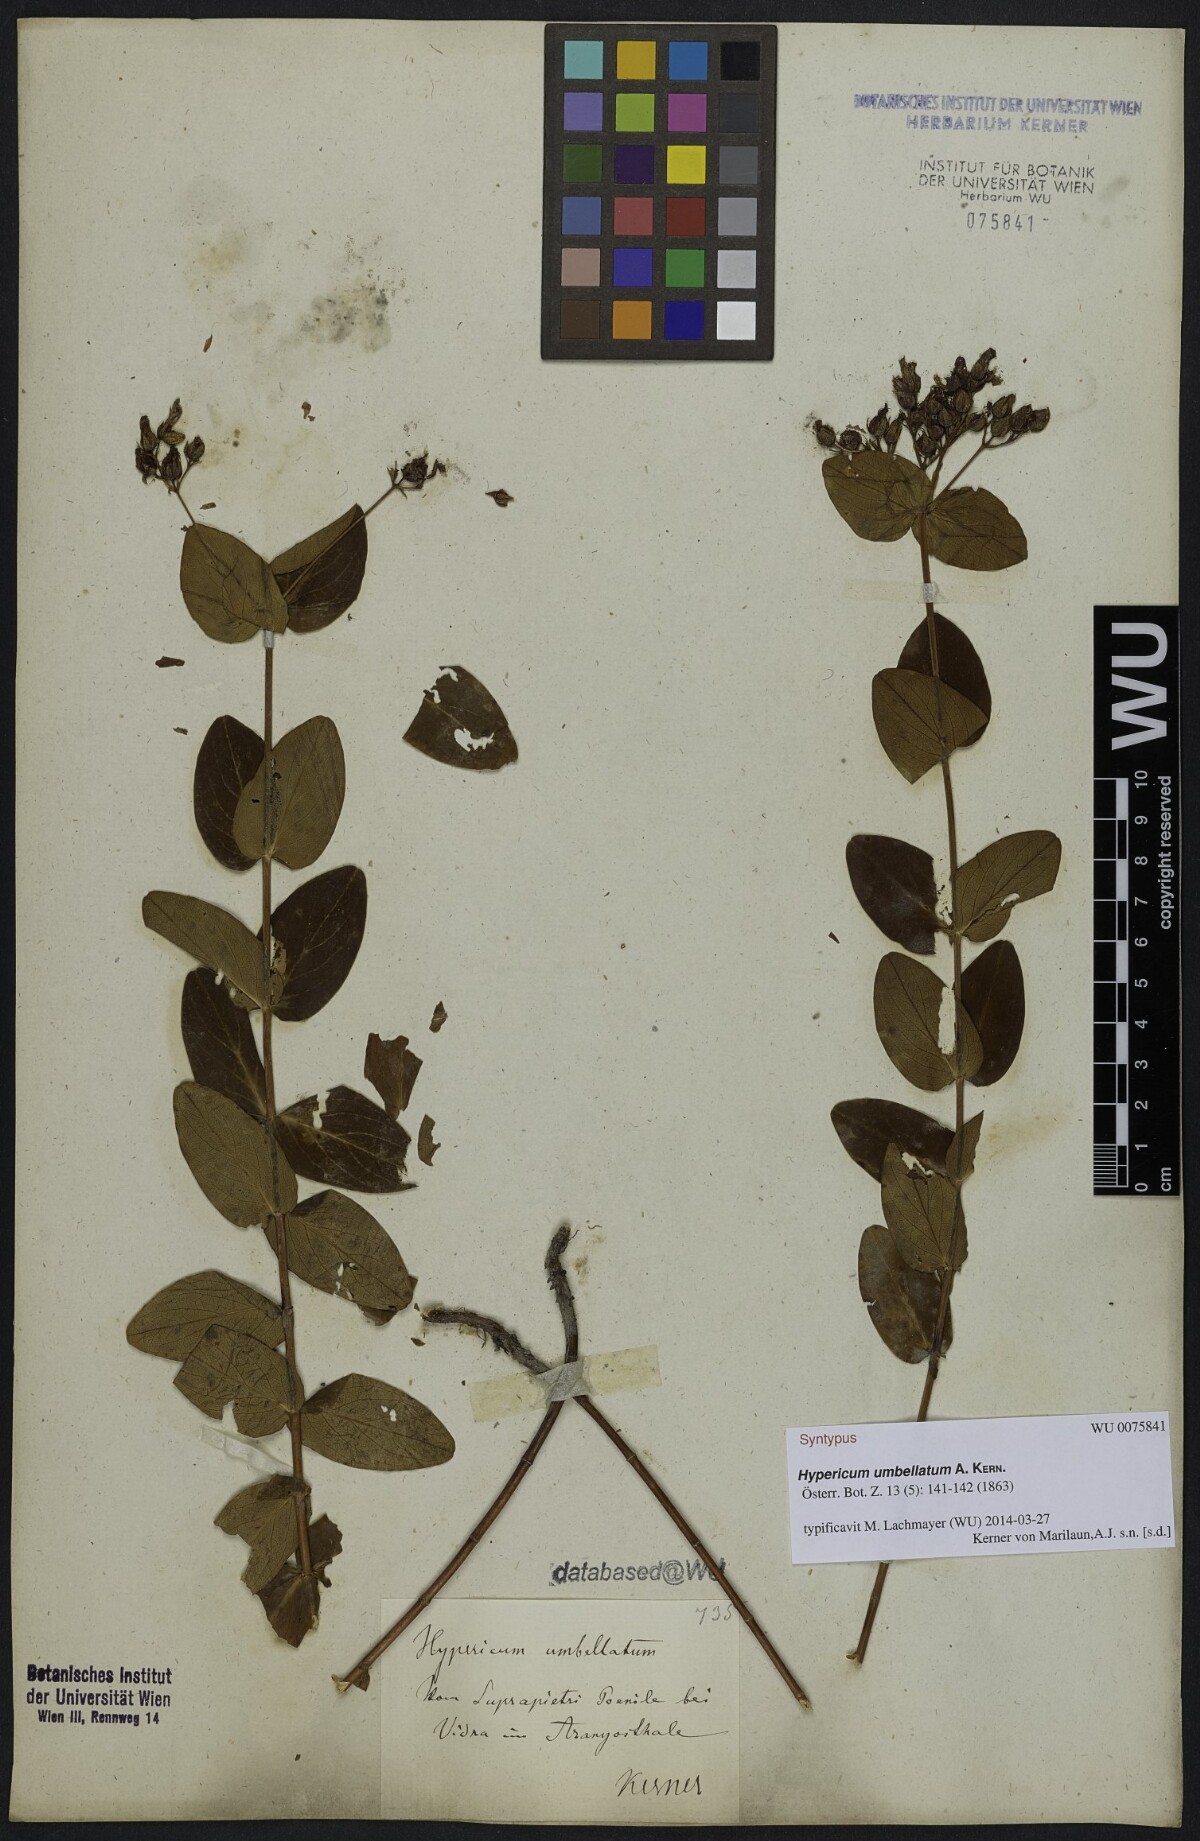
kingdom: Plantae
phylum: Tracheophyta
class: Magnoliopsida
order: Malpighiales
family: Hypericaceae
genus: Hypericum
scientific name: Hypericum umbellatum
